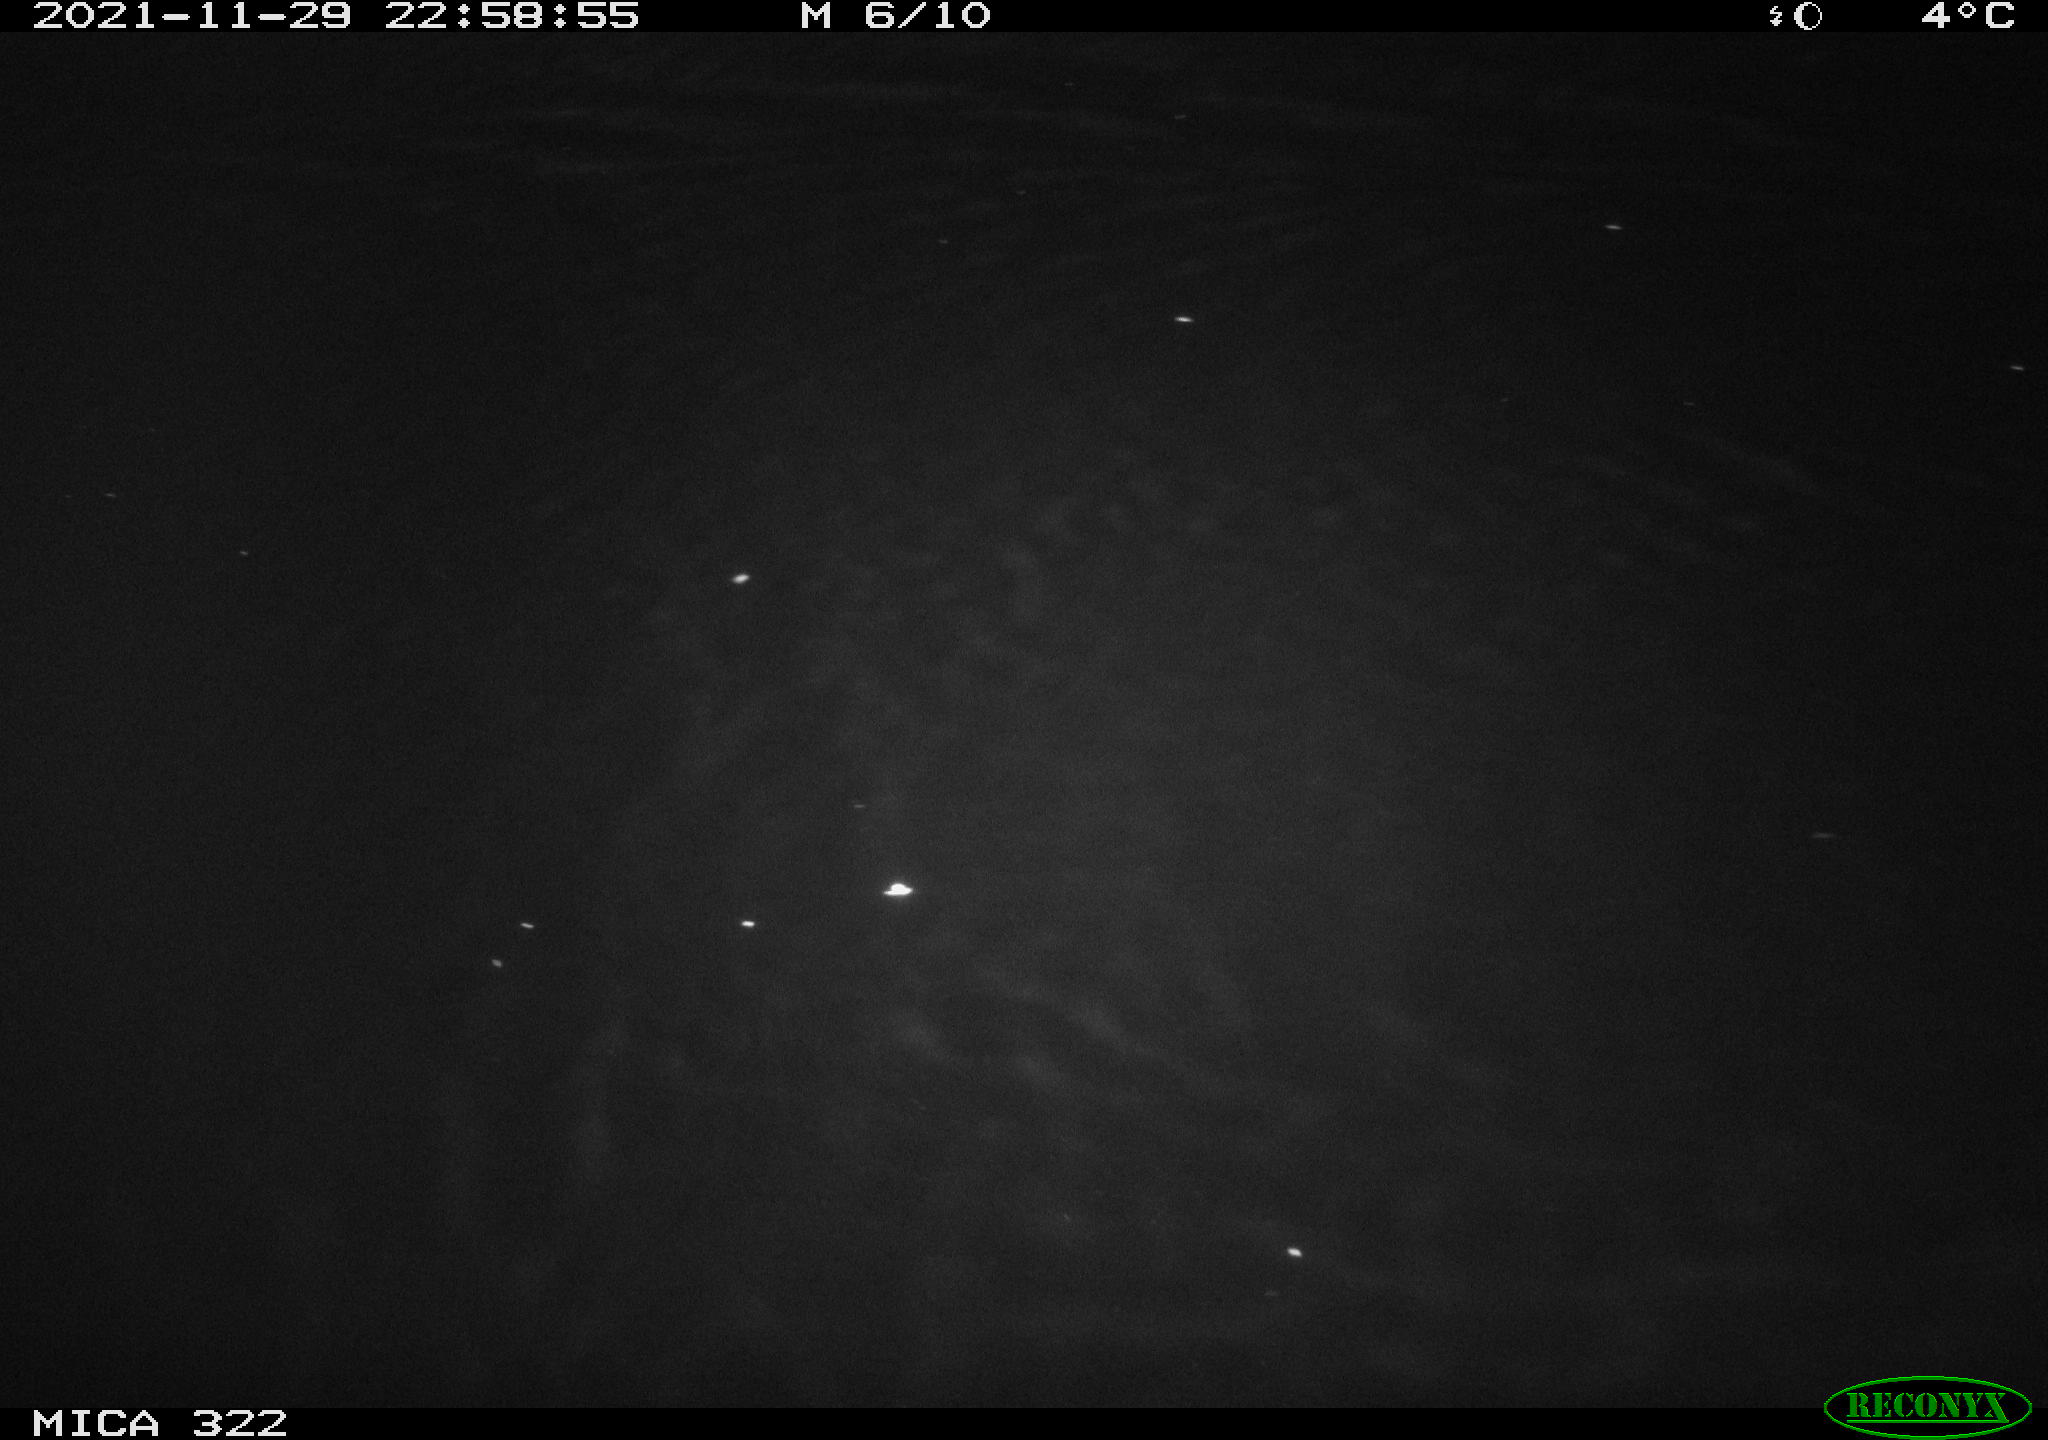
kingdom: Animalia
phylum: Chordata
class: Mammalia
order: Rodentia
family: Muridae
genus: Rattus
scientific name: Rattus norvegicus
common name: Brown rat
